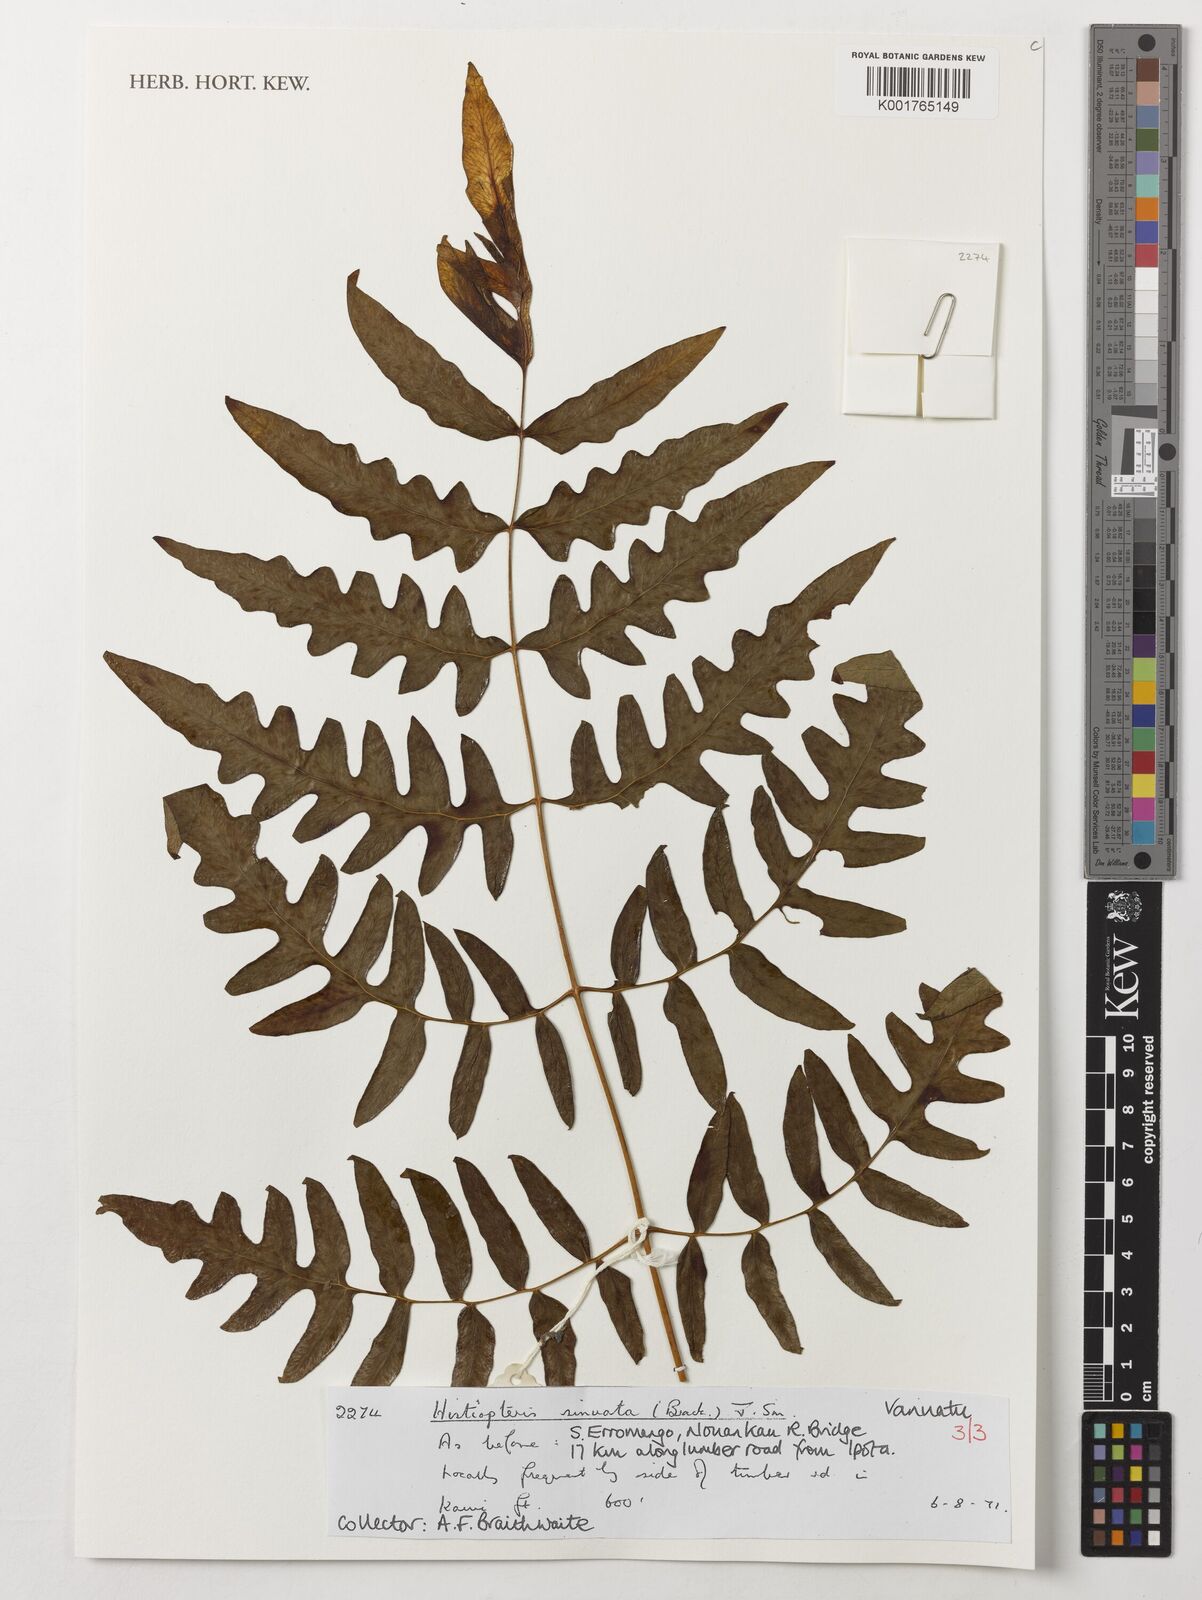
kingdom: Plantae
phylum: Tracheophyta
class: Polypodiopsida
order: Polypodiales
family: Dennstaedtiaceae
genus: Histiopteris
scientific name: Histiopteris incisa
